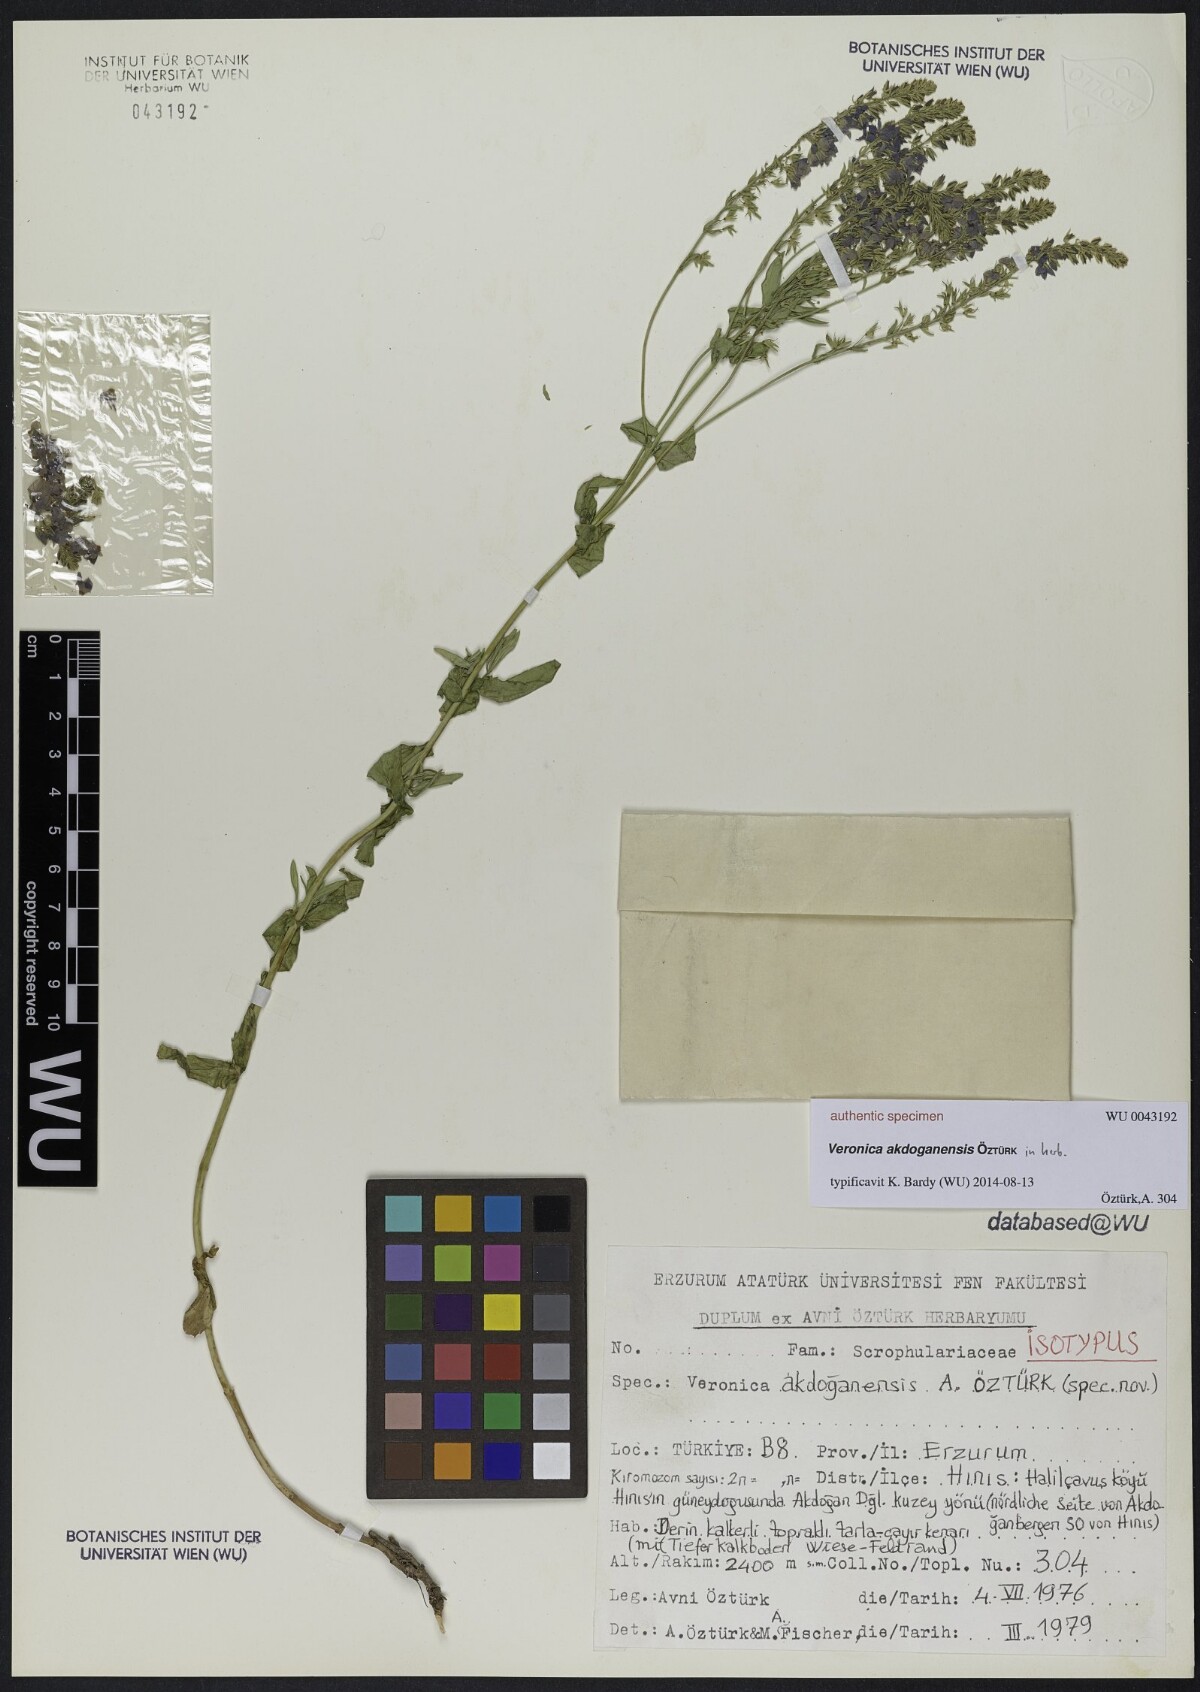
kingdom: Plantae
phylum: Tracheophyta
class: Magnoliopsida
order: Lamiales
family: Scrophulariaceae
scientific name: Scrophulariaceae
